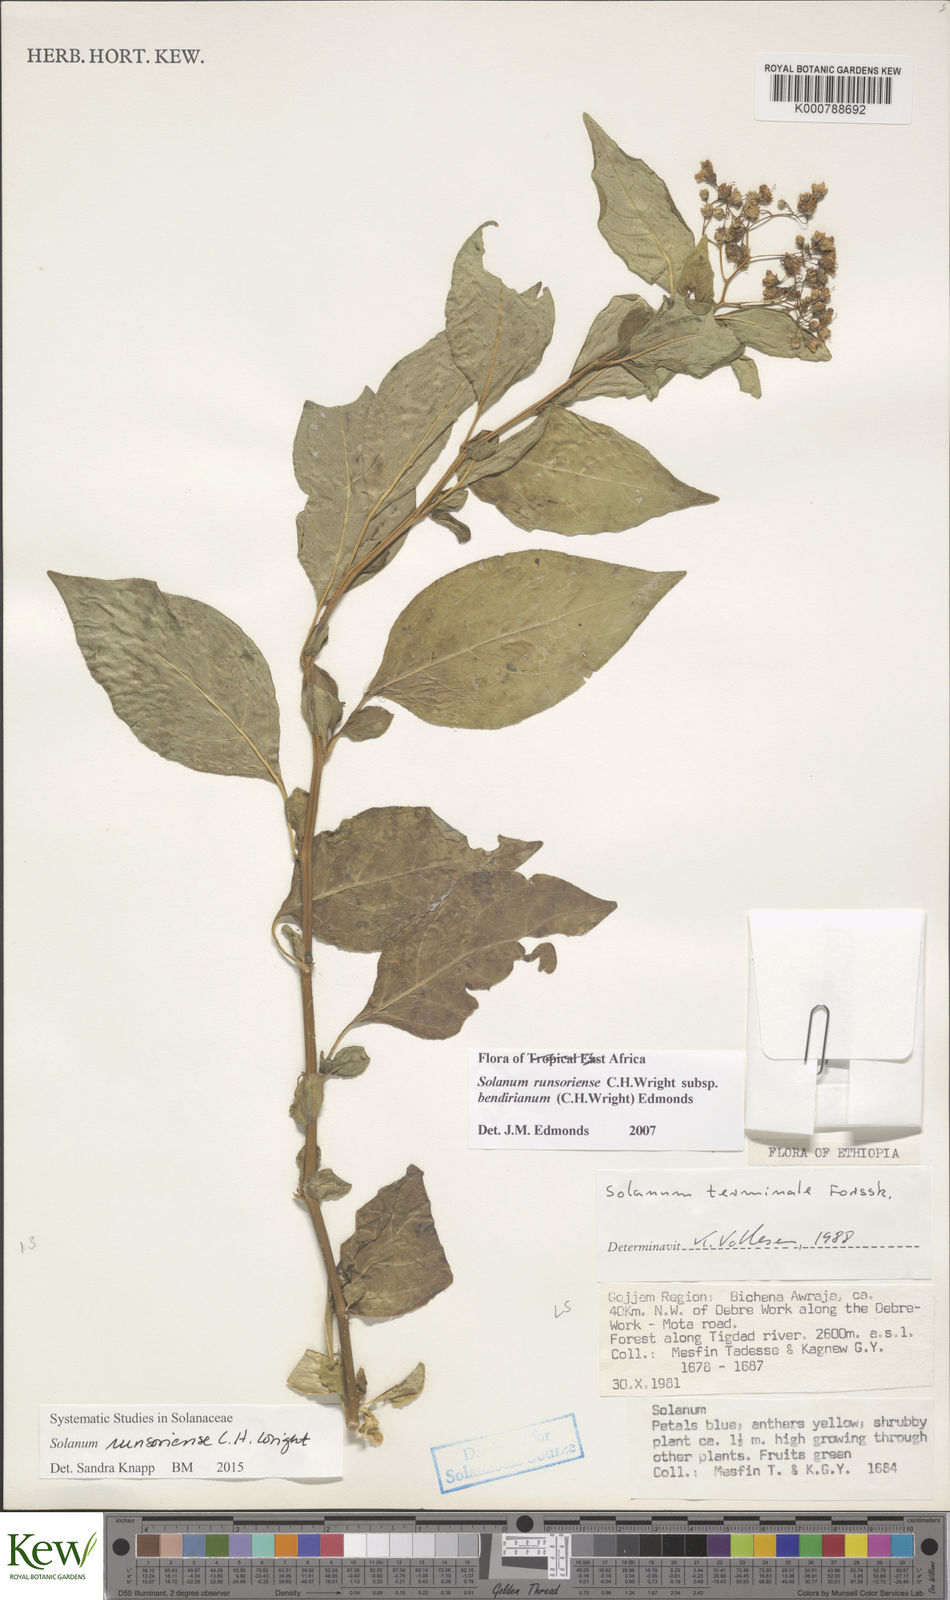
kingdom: Plantae
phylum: Tracheophyta
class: Magnoliopsida
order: Solanales
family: Solanaceae
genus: Solanum
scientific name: Solanum runsoriense
